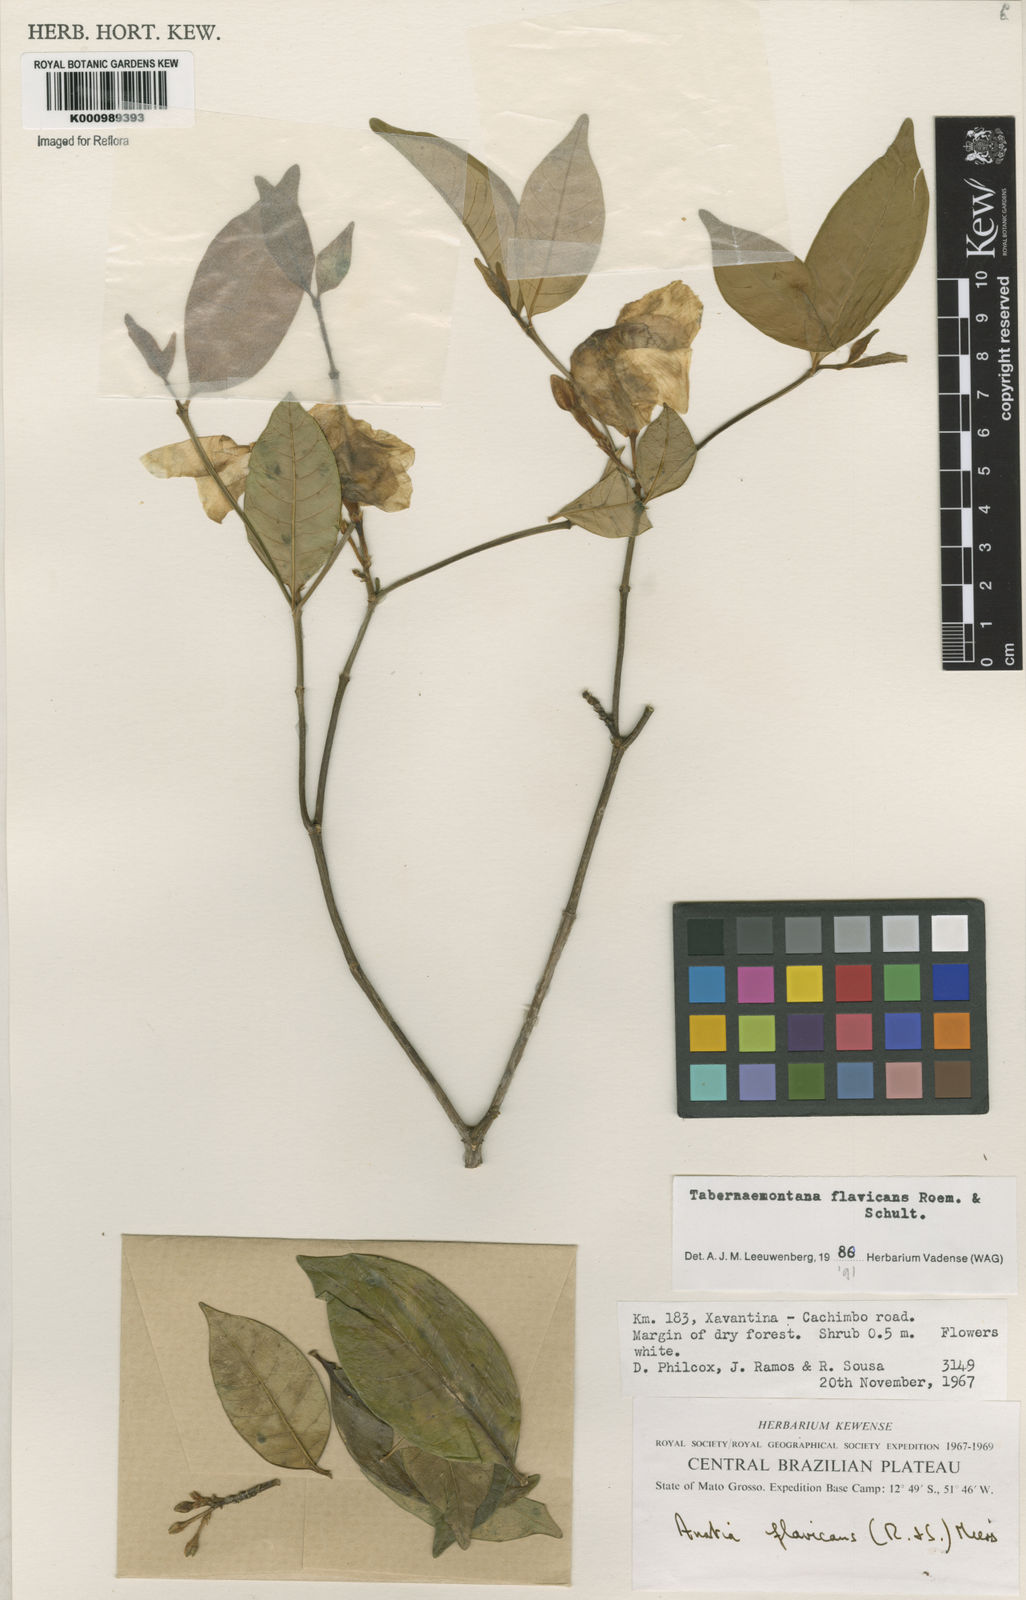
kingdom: Plantae
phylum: Tracheophyta
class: Magnoliopsida
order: Gentianales
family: Apocynaceae
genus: Tabernaemontana
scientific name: Tabernaemontana flavicans
